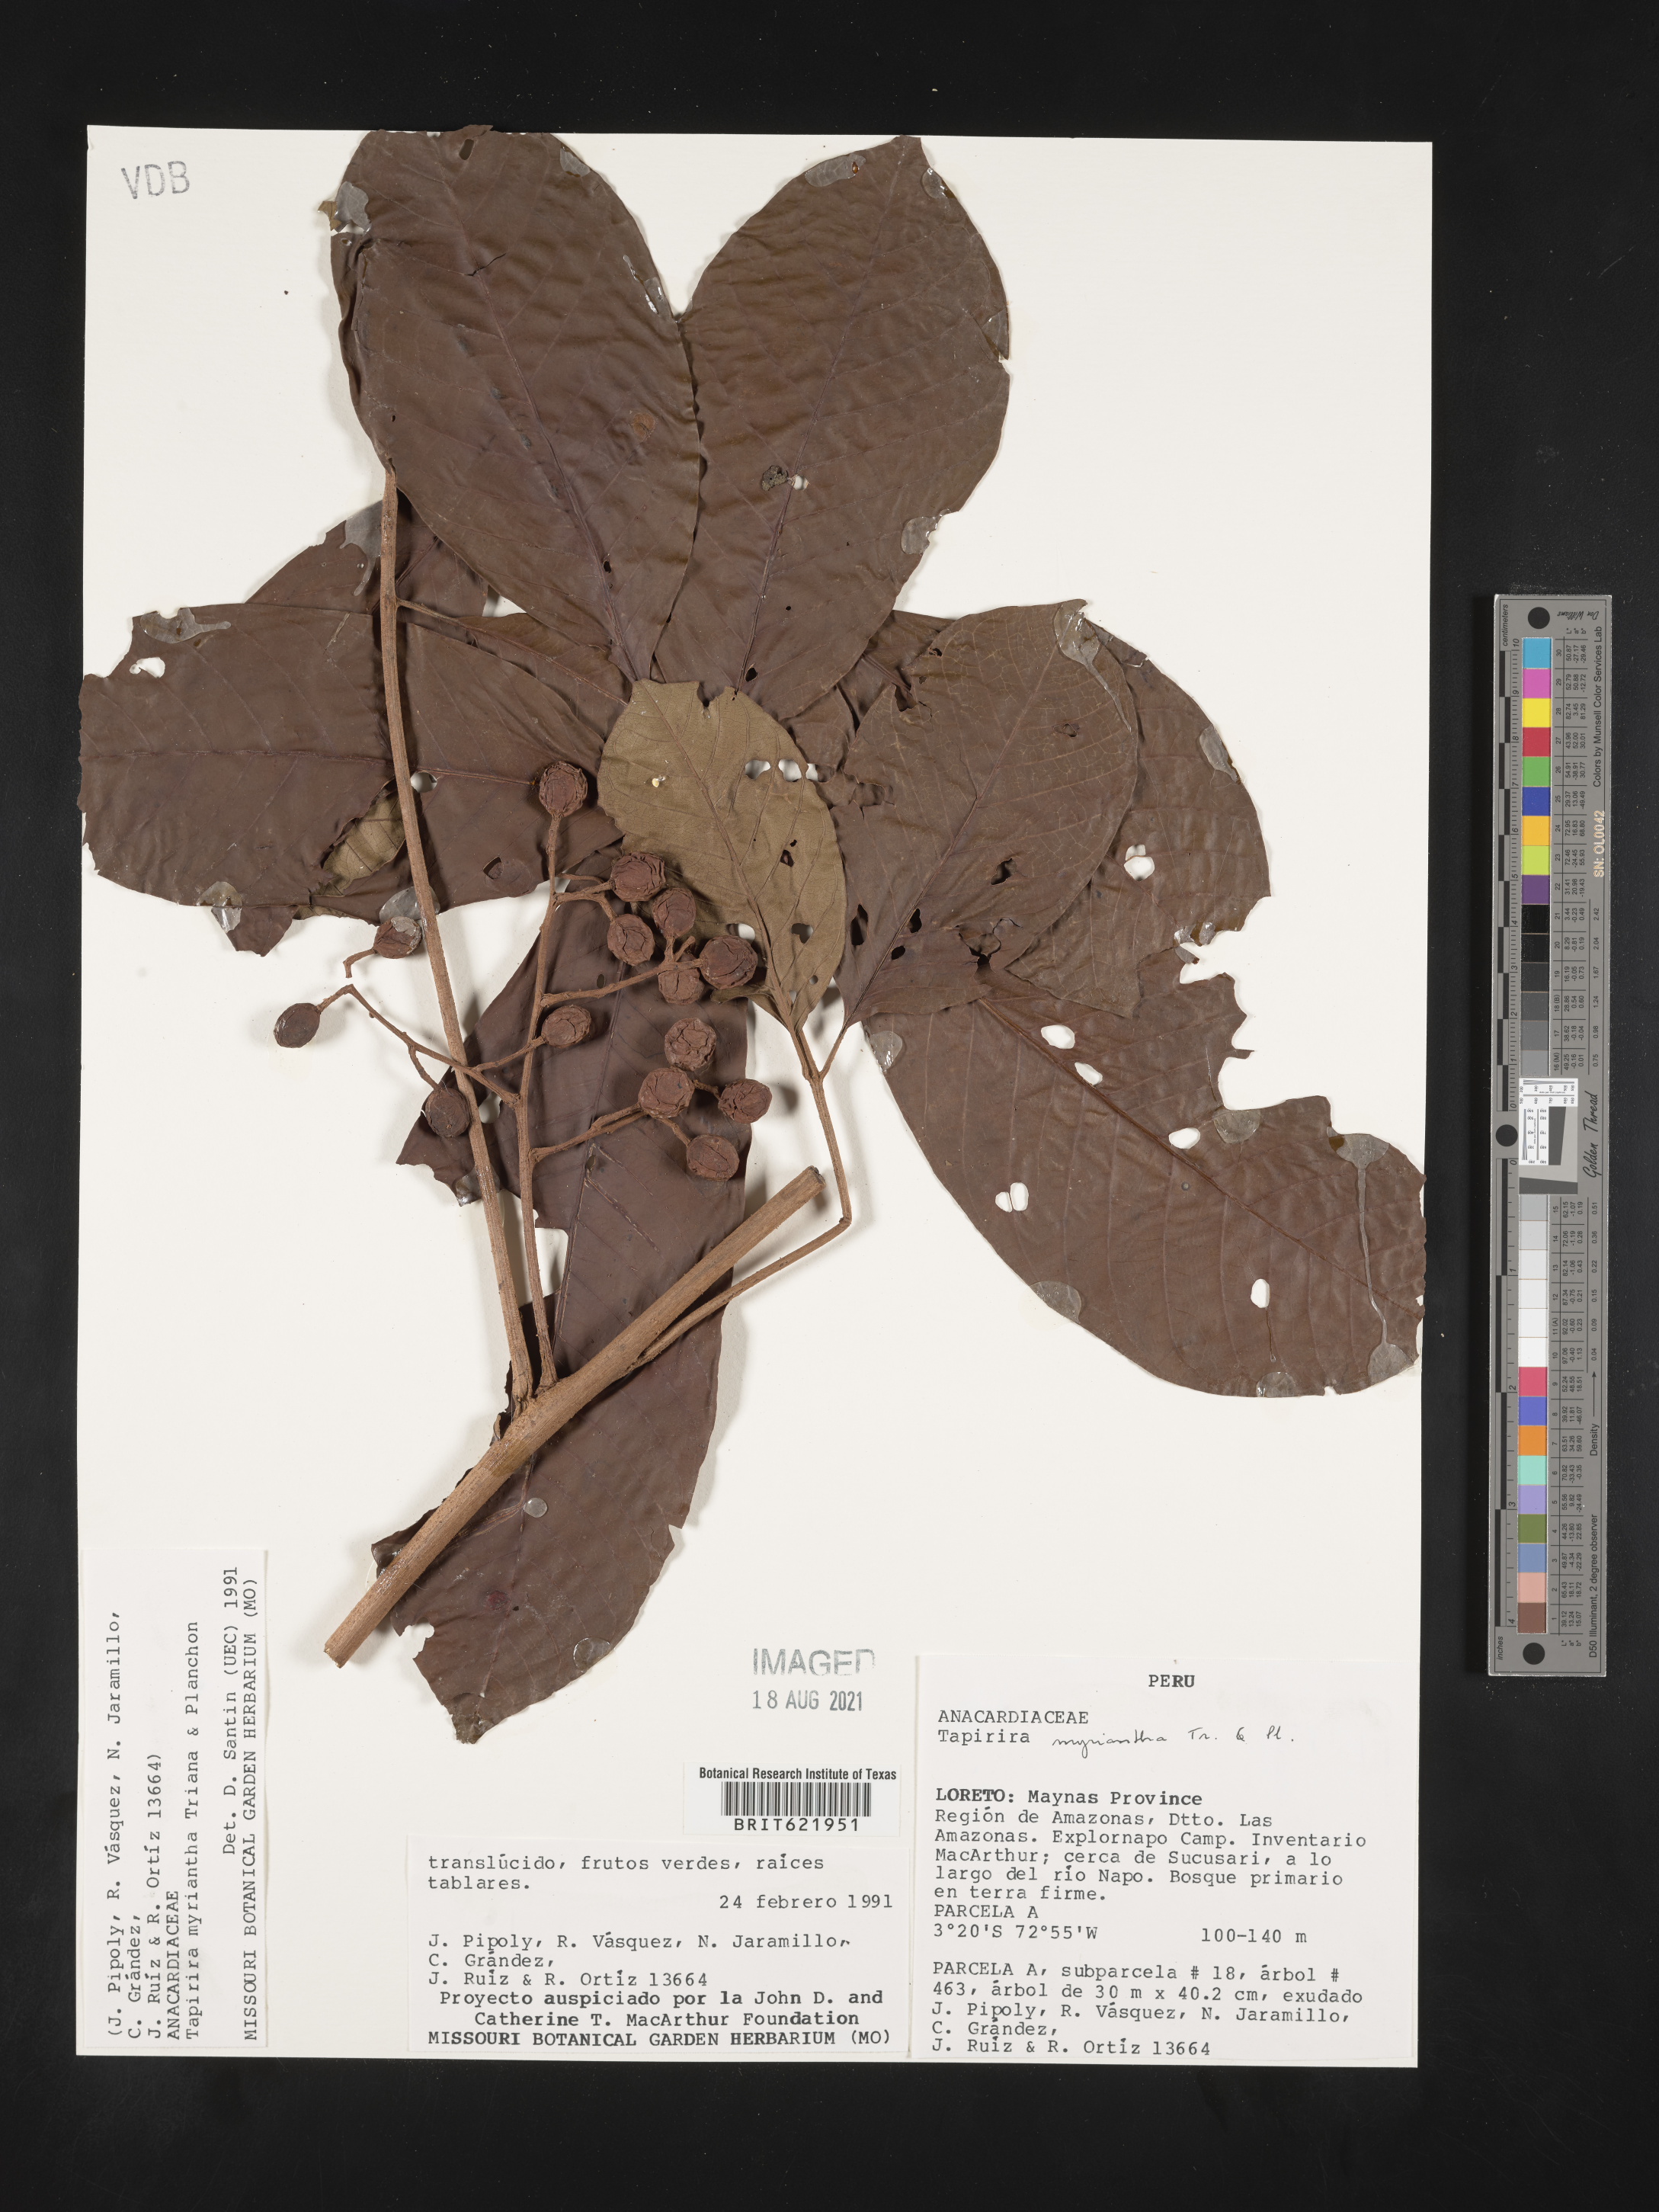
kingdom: Plantae
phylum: Tracheophyta
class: Magnoliopsida
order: Sapindales
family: Anacardiaceae
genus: Tapirira
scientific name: Tapirira guianensis
